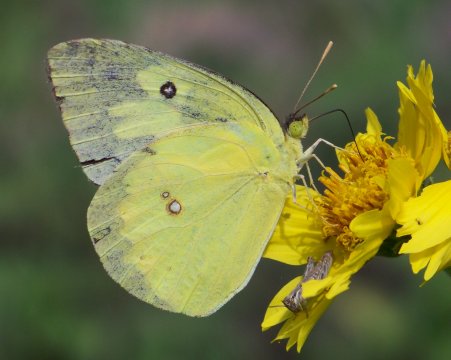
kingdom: Animalia
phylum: Arthropoda
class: Insecta
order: Lepidoptera
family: Pieridae
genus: Zerene
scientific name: Zerene cesonia
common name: Southern Dogface
